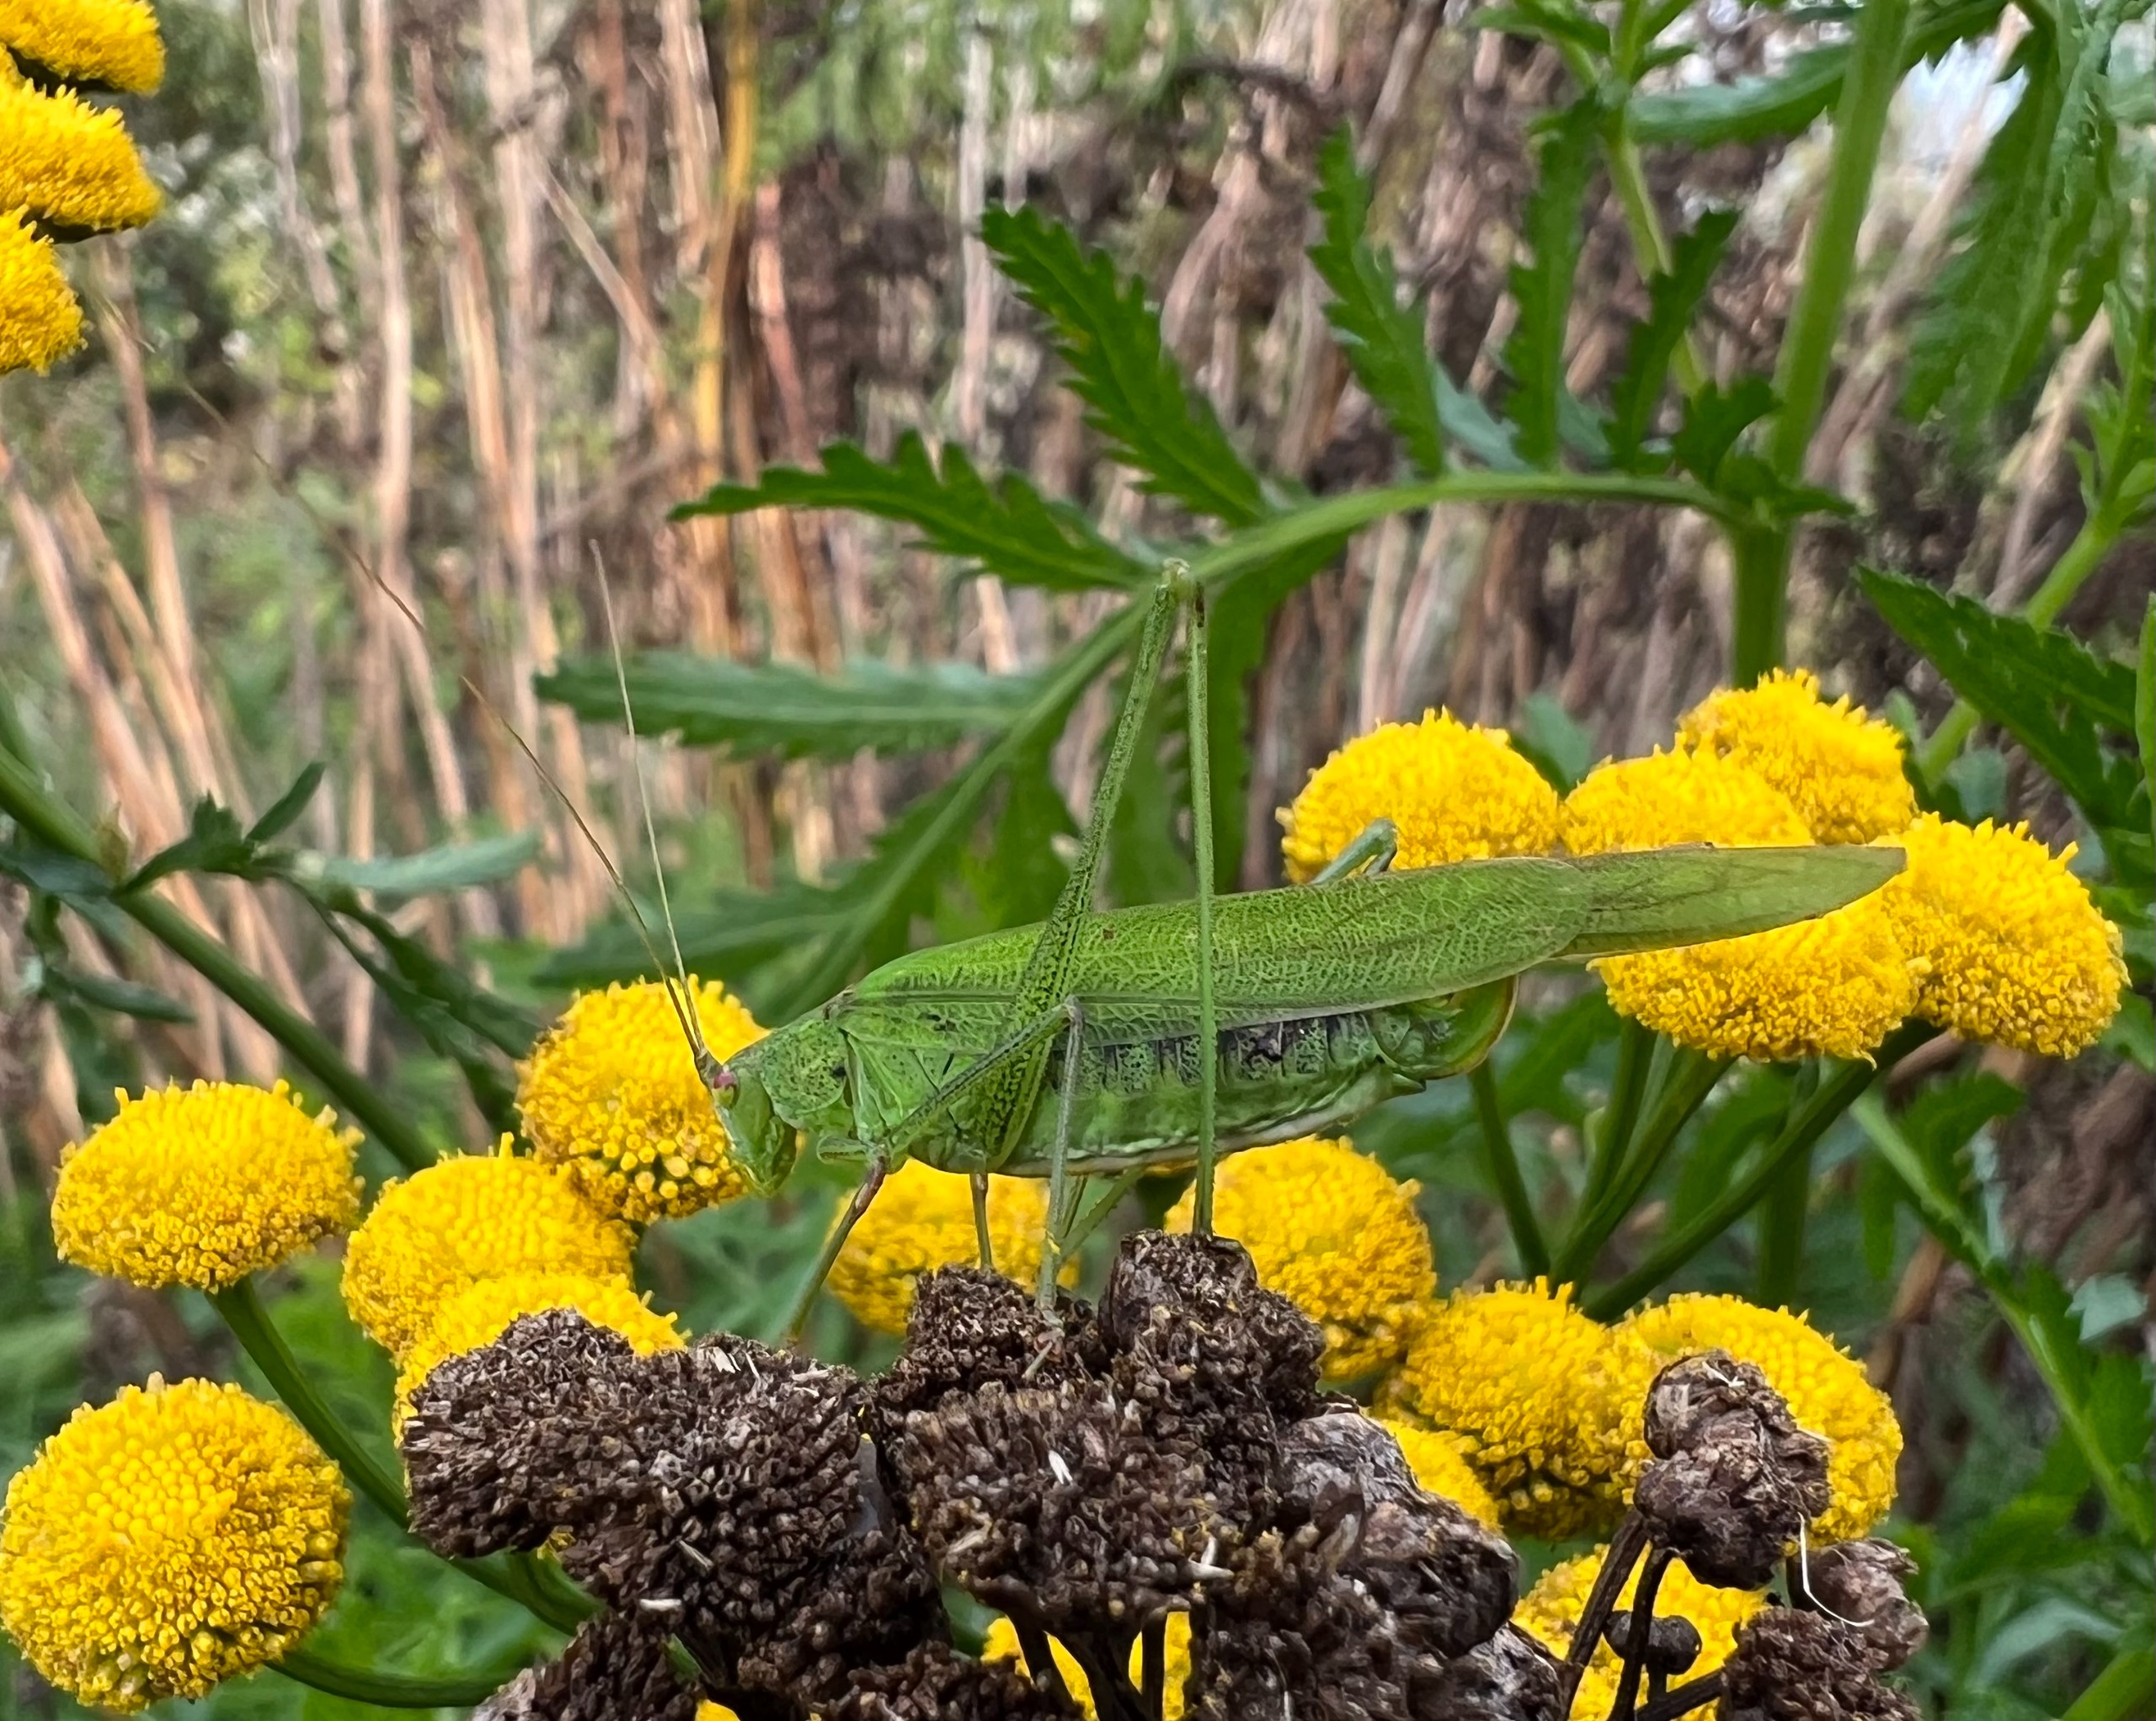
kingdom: Animalia
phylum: Arthropoda
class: Insecta
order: Orthoptera
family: Tettigoniidae
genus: Phaneroptera
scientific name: Phaneroptera falcata
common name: Seglgræshoppe
